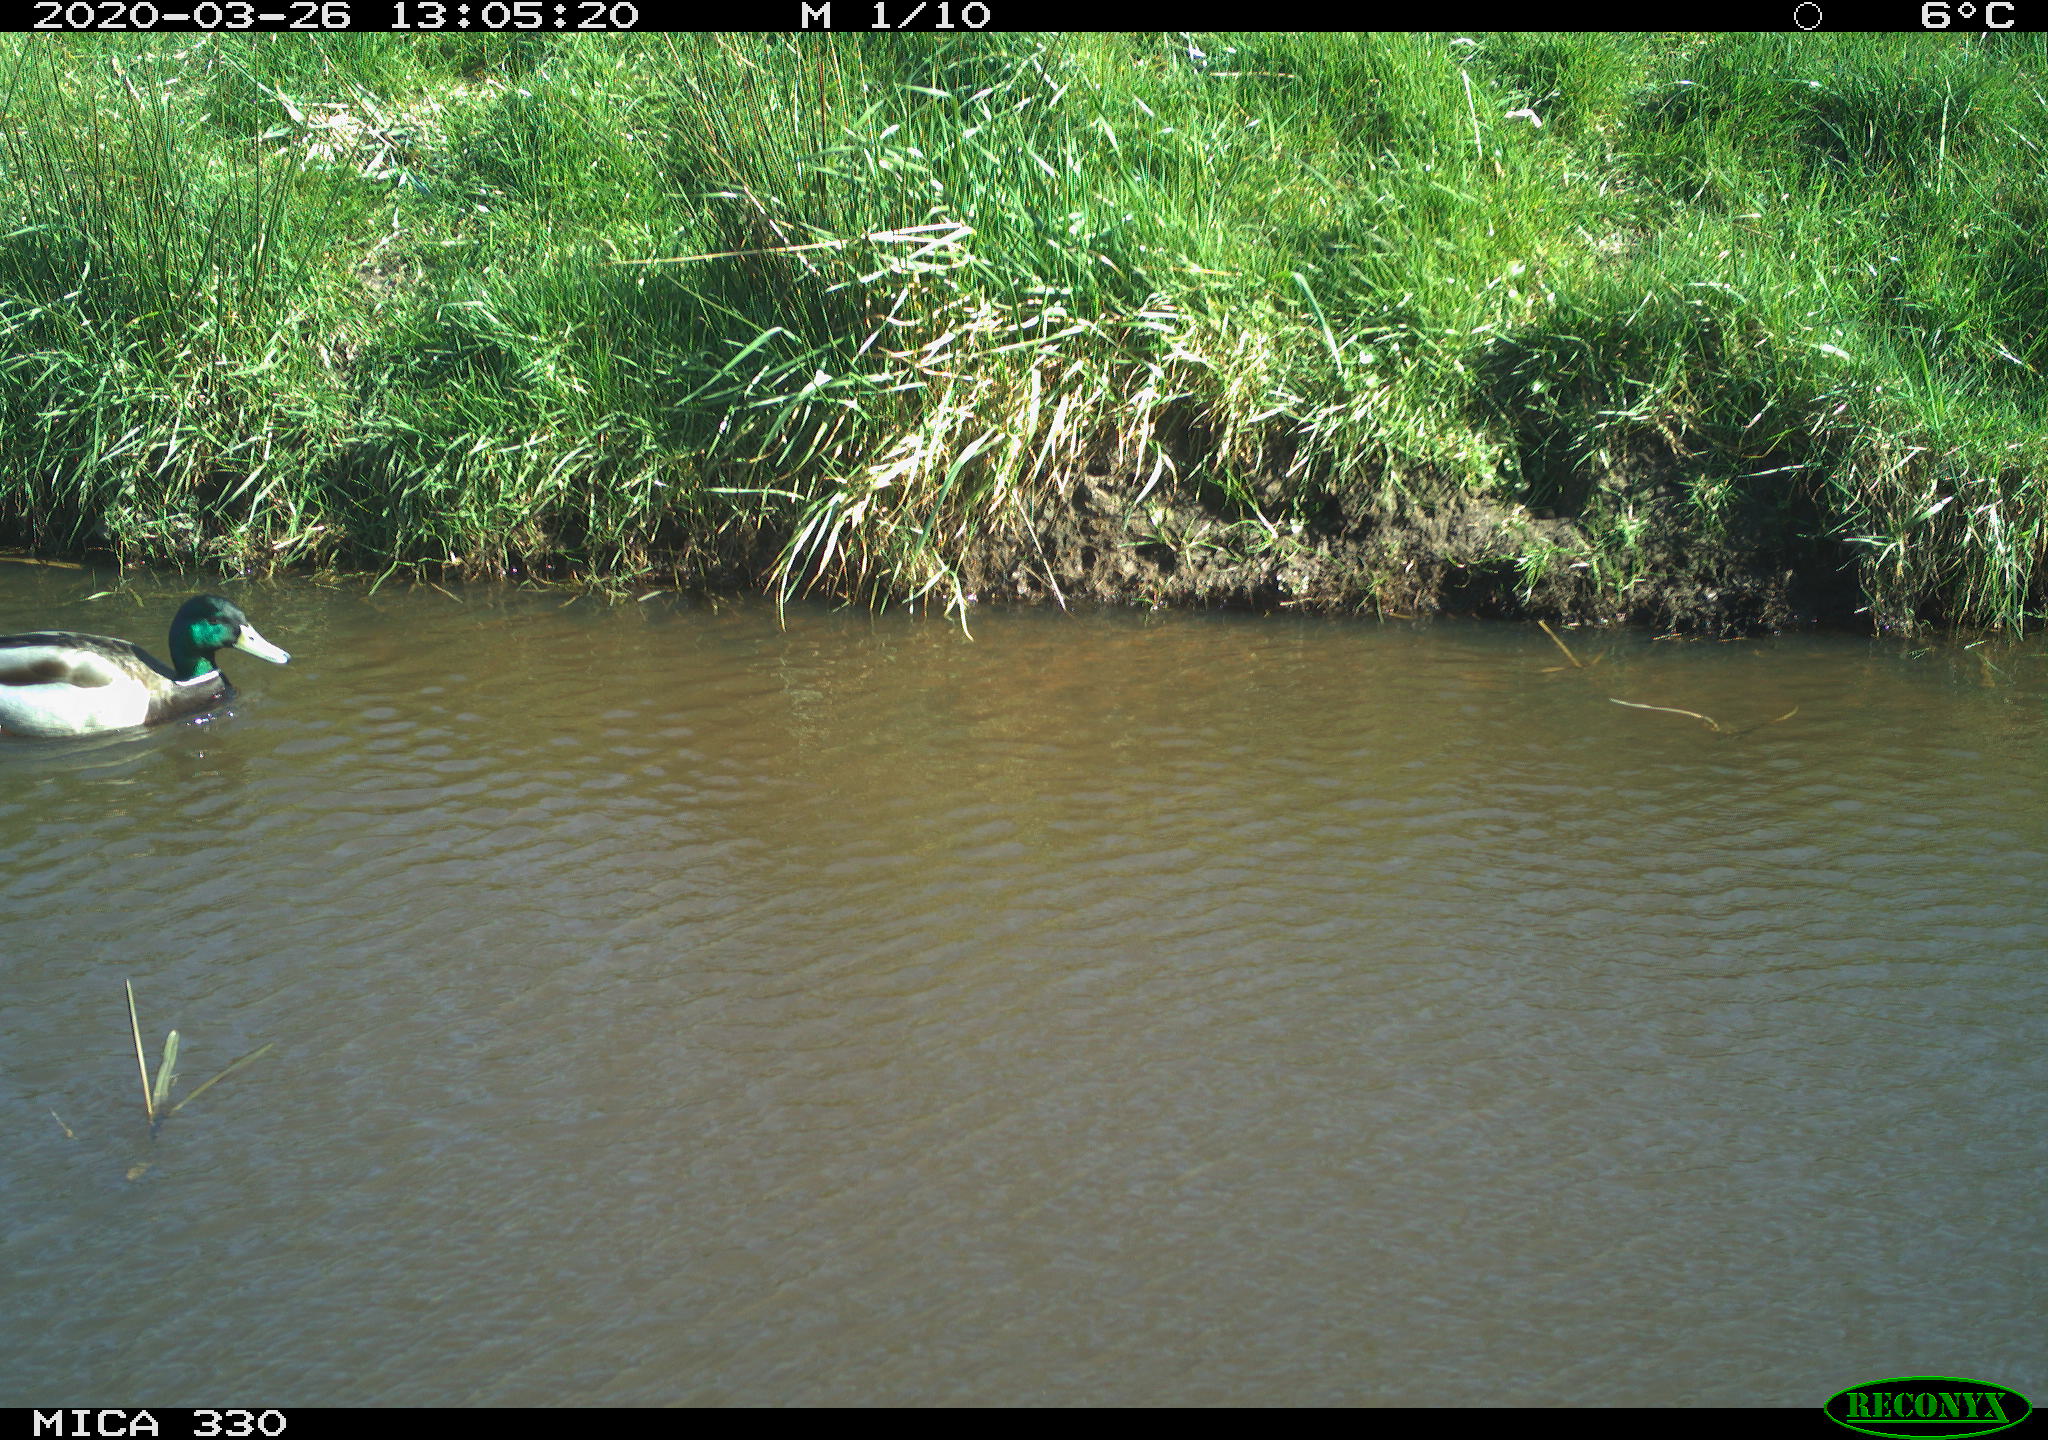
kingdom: Animalia
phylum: Chordata
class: Aves
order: Anseriformes
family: Anatidae
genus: Anas
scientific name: Anas platyrhynchos
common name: Mallard
